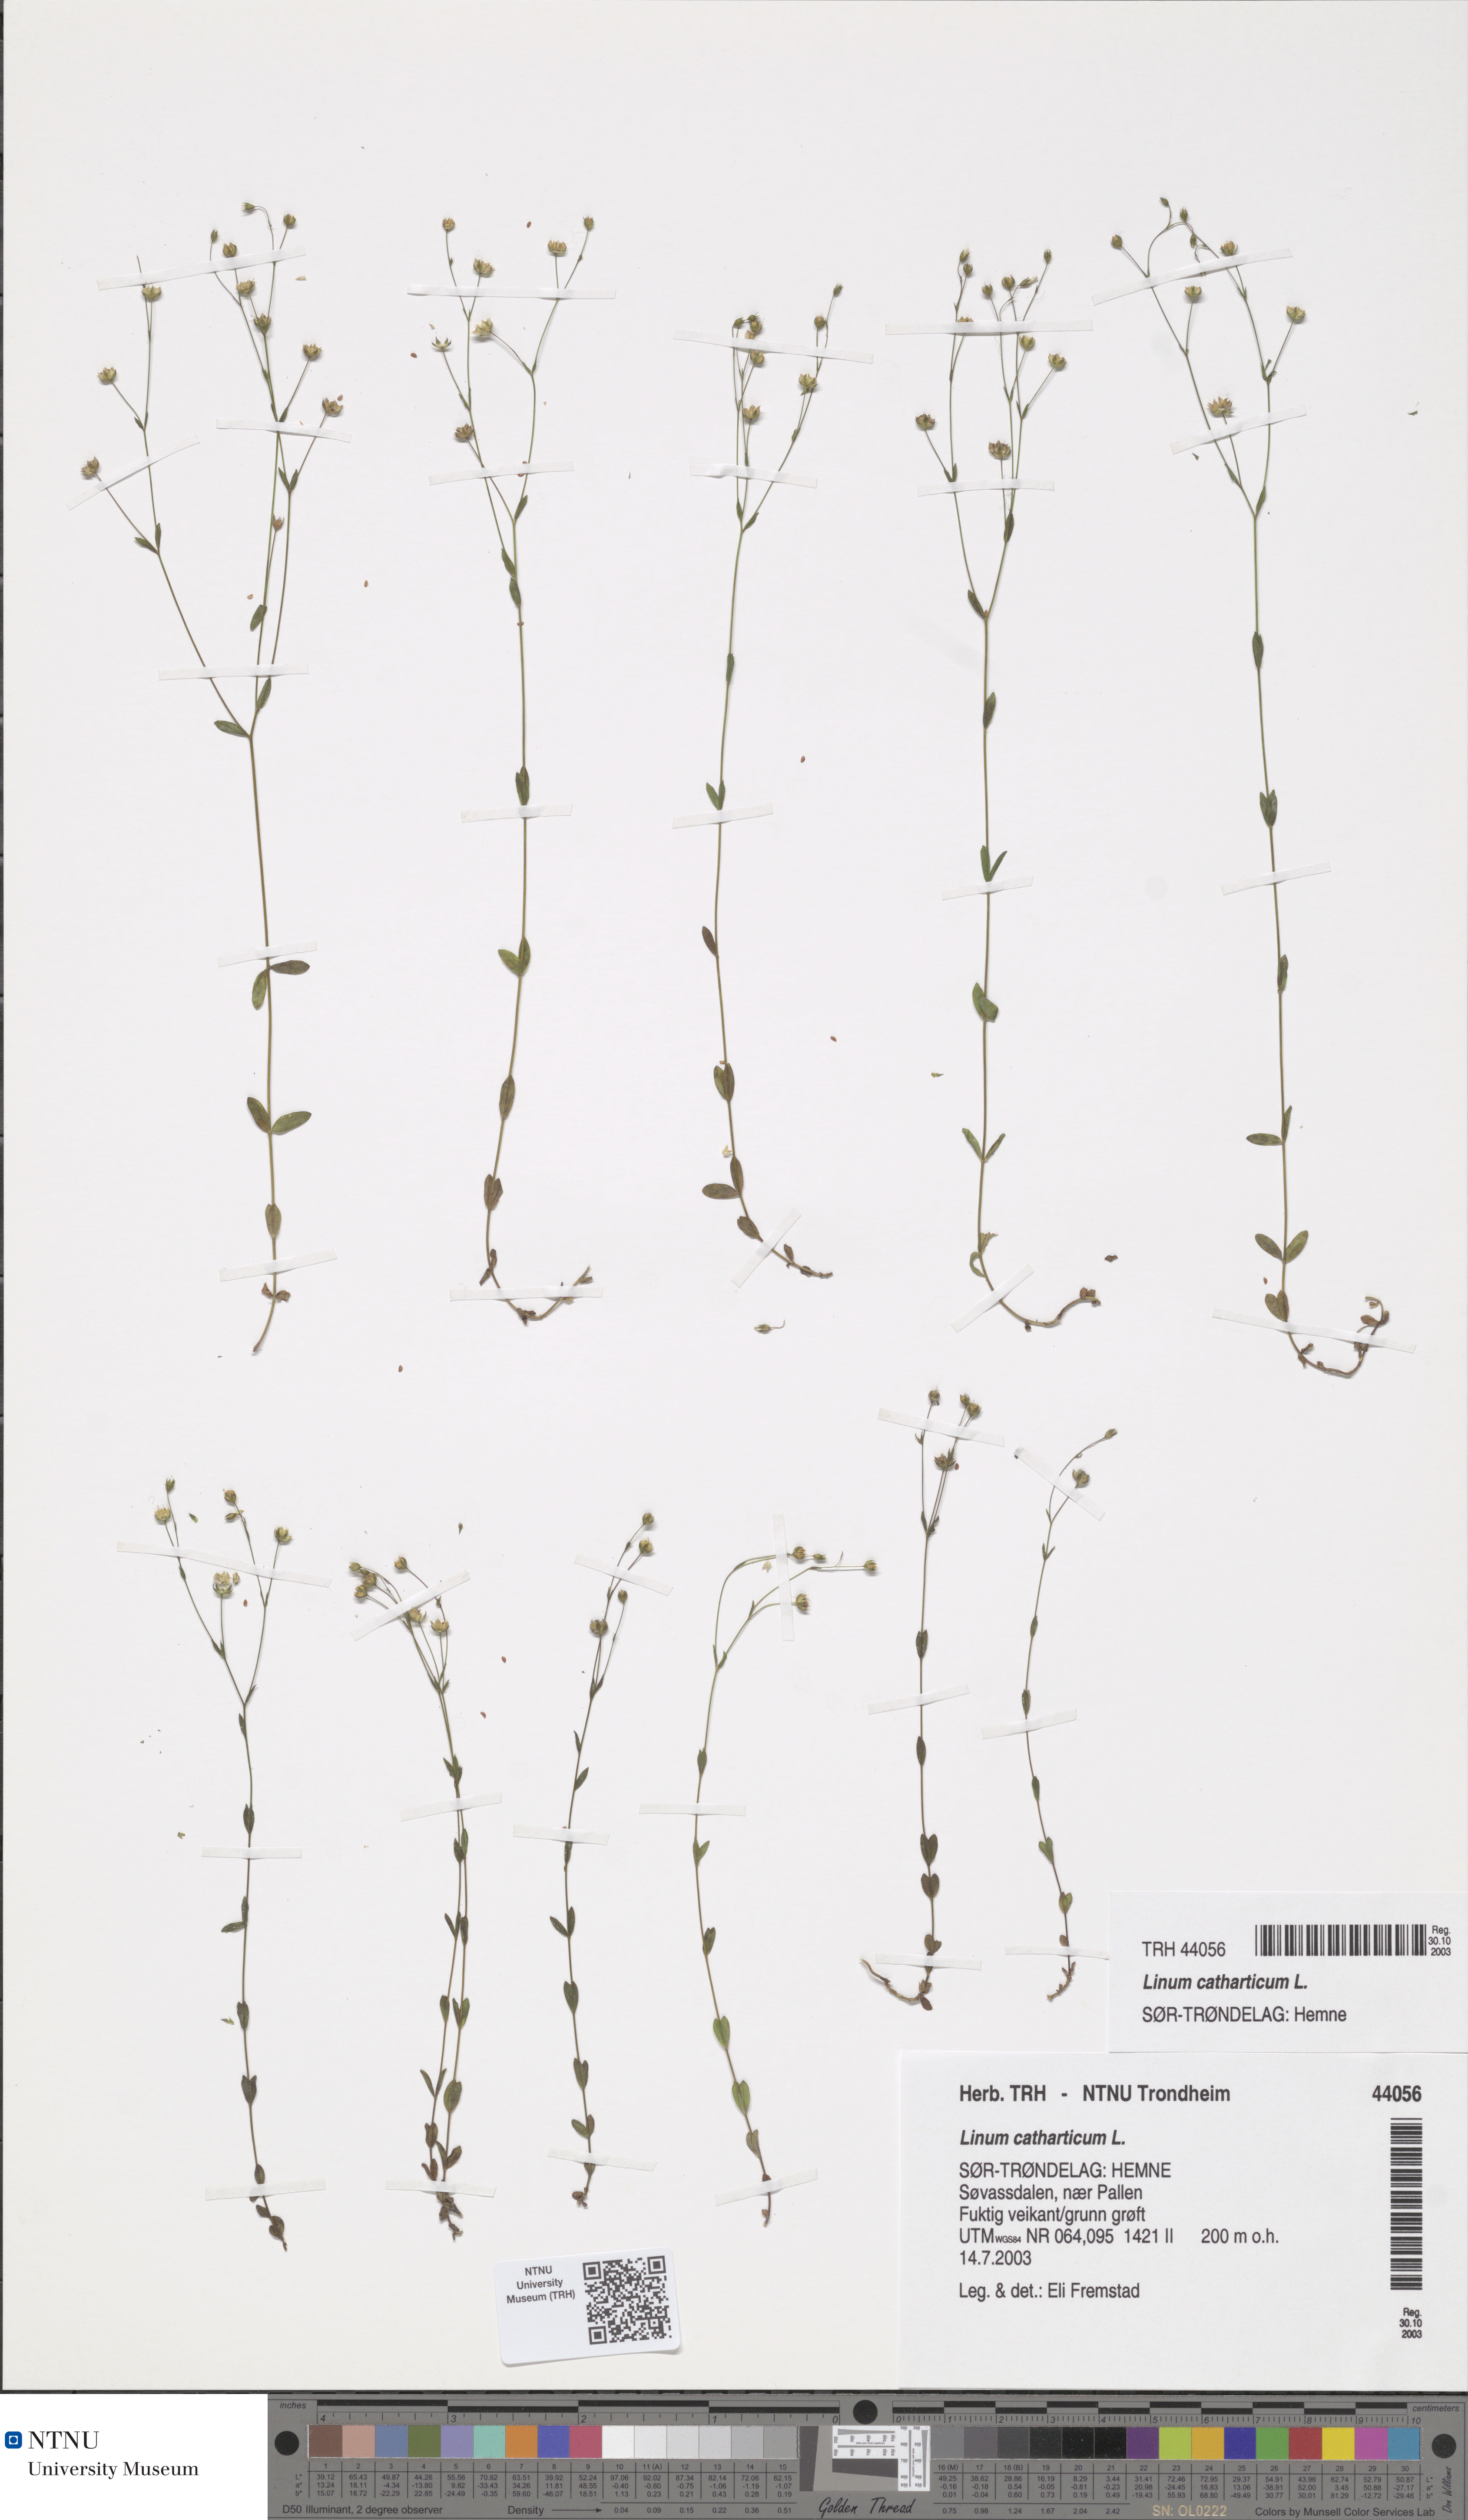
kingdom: Plantae
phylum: Tracheophyta
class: Magnoliopsida
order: Malpighiales
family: Linaceae
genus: Linum
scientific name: Linum catharticum
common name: Fairy flax
